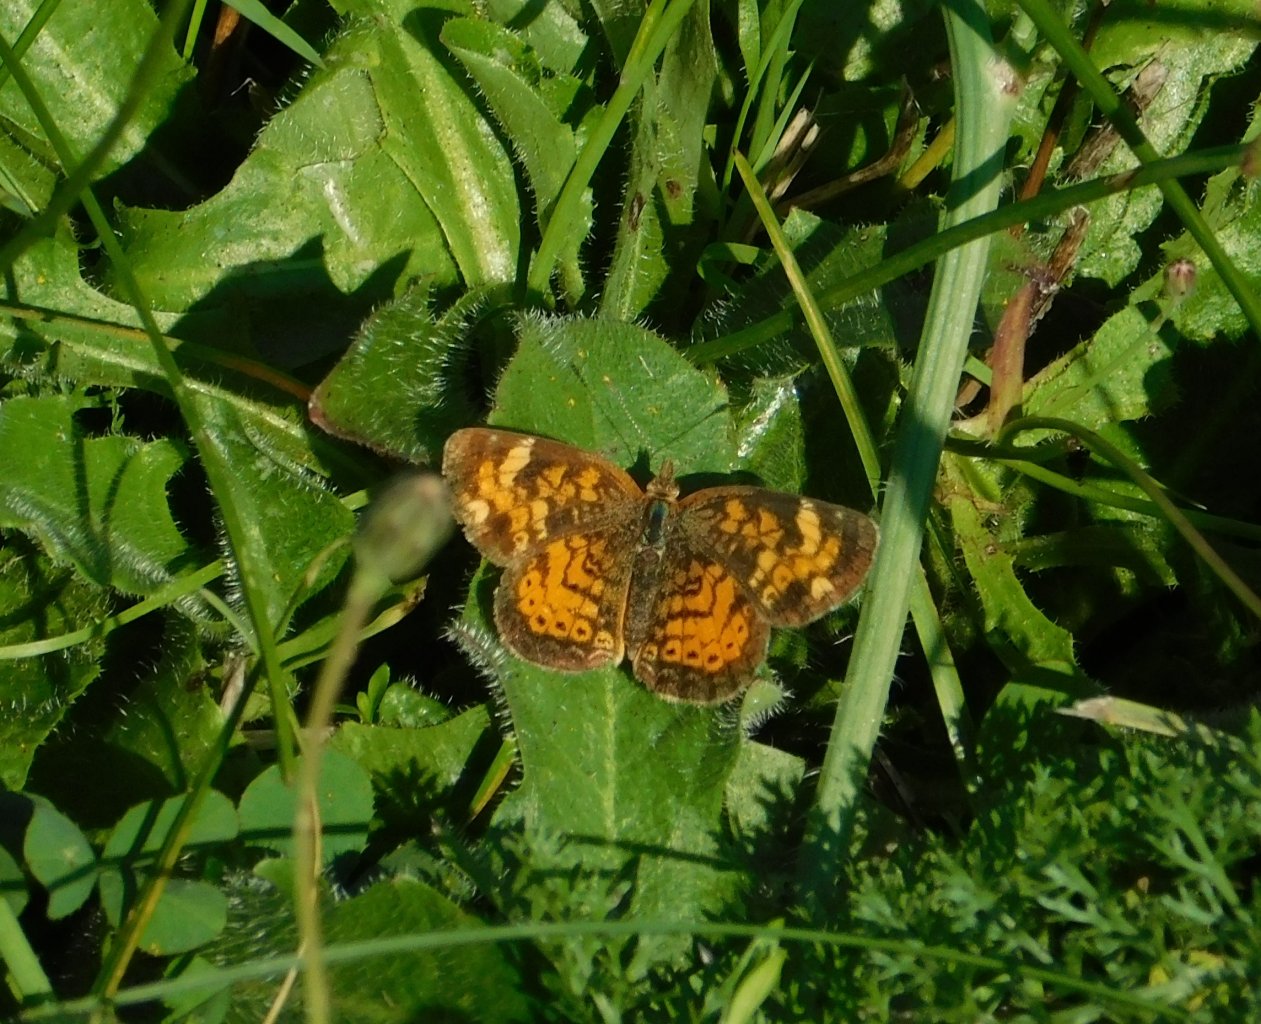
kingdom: Animalia
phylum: Arthropoda
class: Insecta
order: Lepidoptera
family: Nymphalidae
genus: Phyciodes
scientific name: Phyciodes tharos
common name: Northern Crescent
